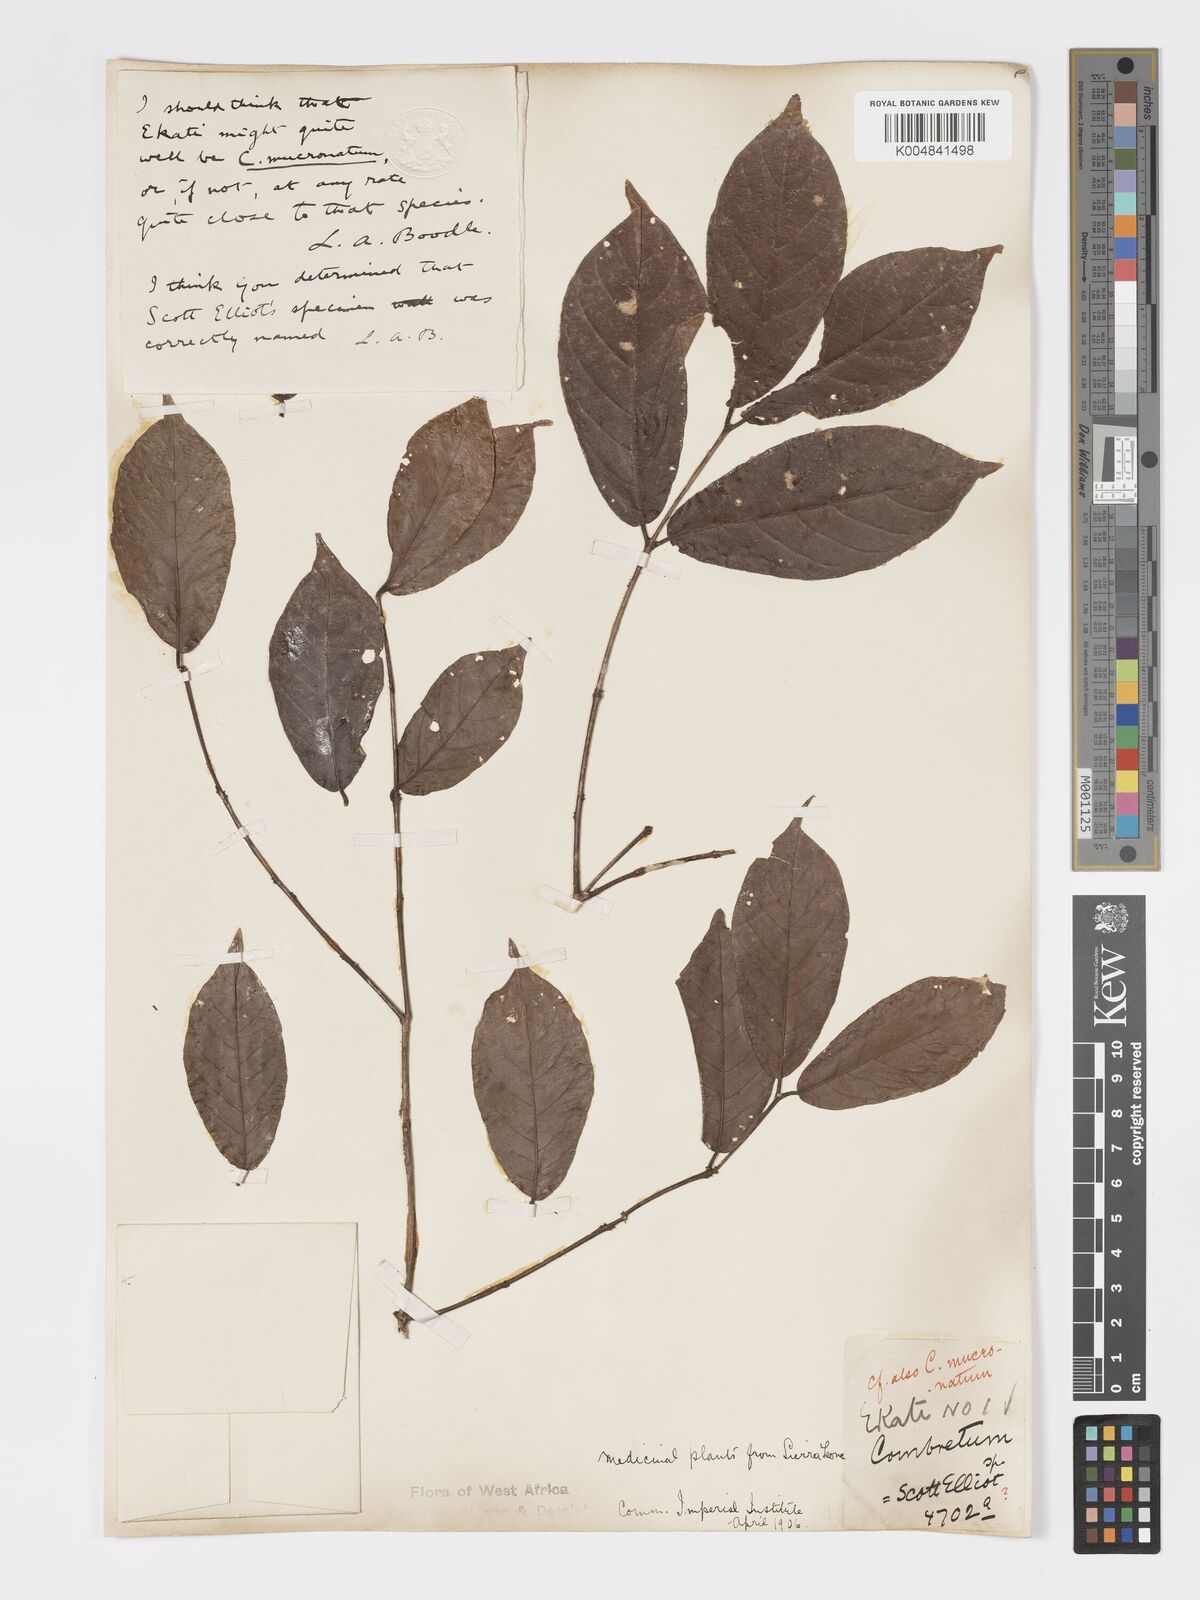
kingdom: Plantae
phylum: Tracheophyta
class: Magnoliopsida
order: Myrtales
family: Combretaceae
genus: Combretum
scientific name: Combretum mucronatum
